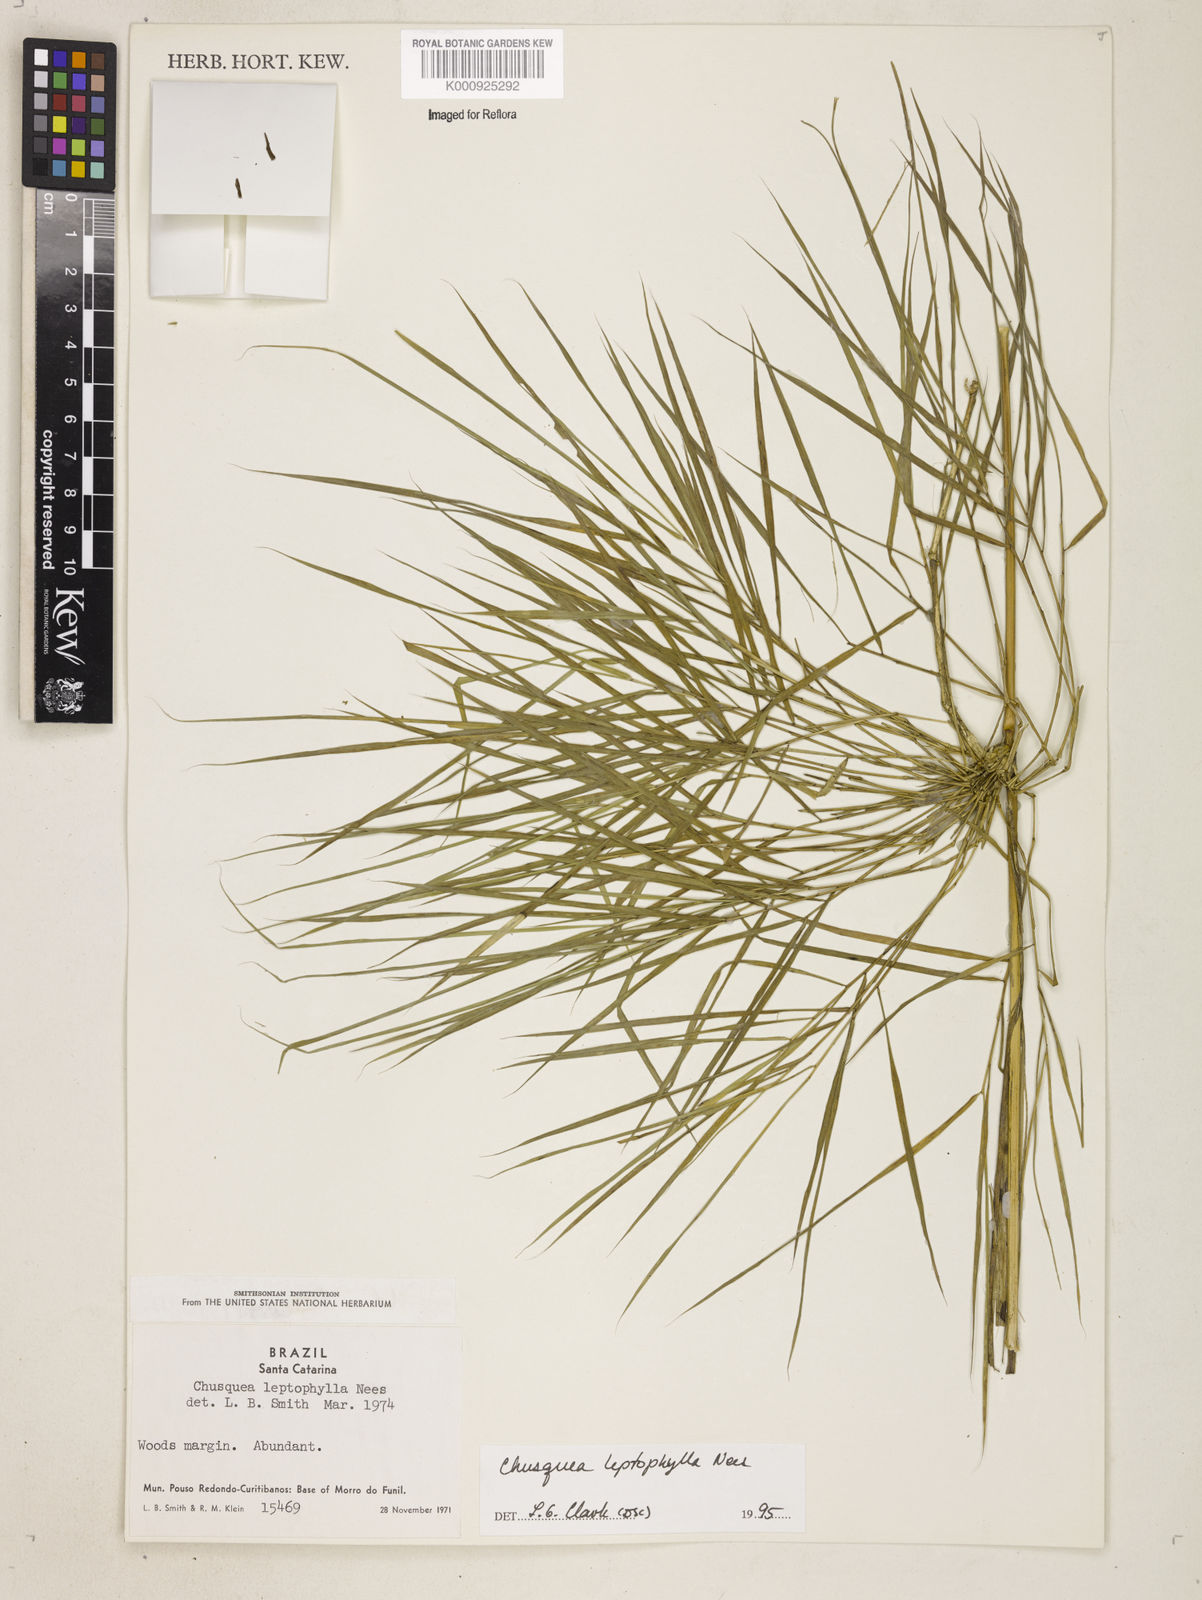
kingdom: Plantae
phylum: Tracheophyta
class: Liliopsida
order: Poales
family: Poaceae
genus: Chusquea
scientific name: Chusquea leptophylla
